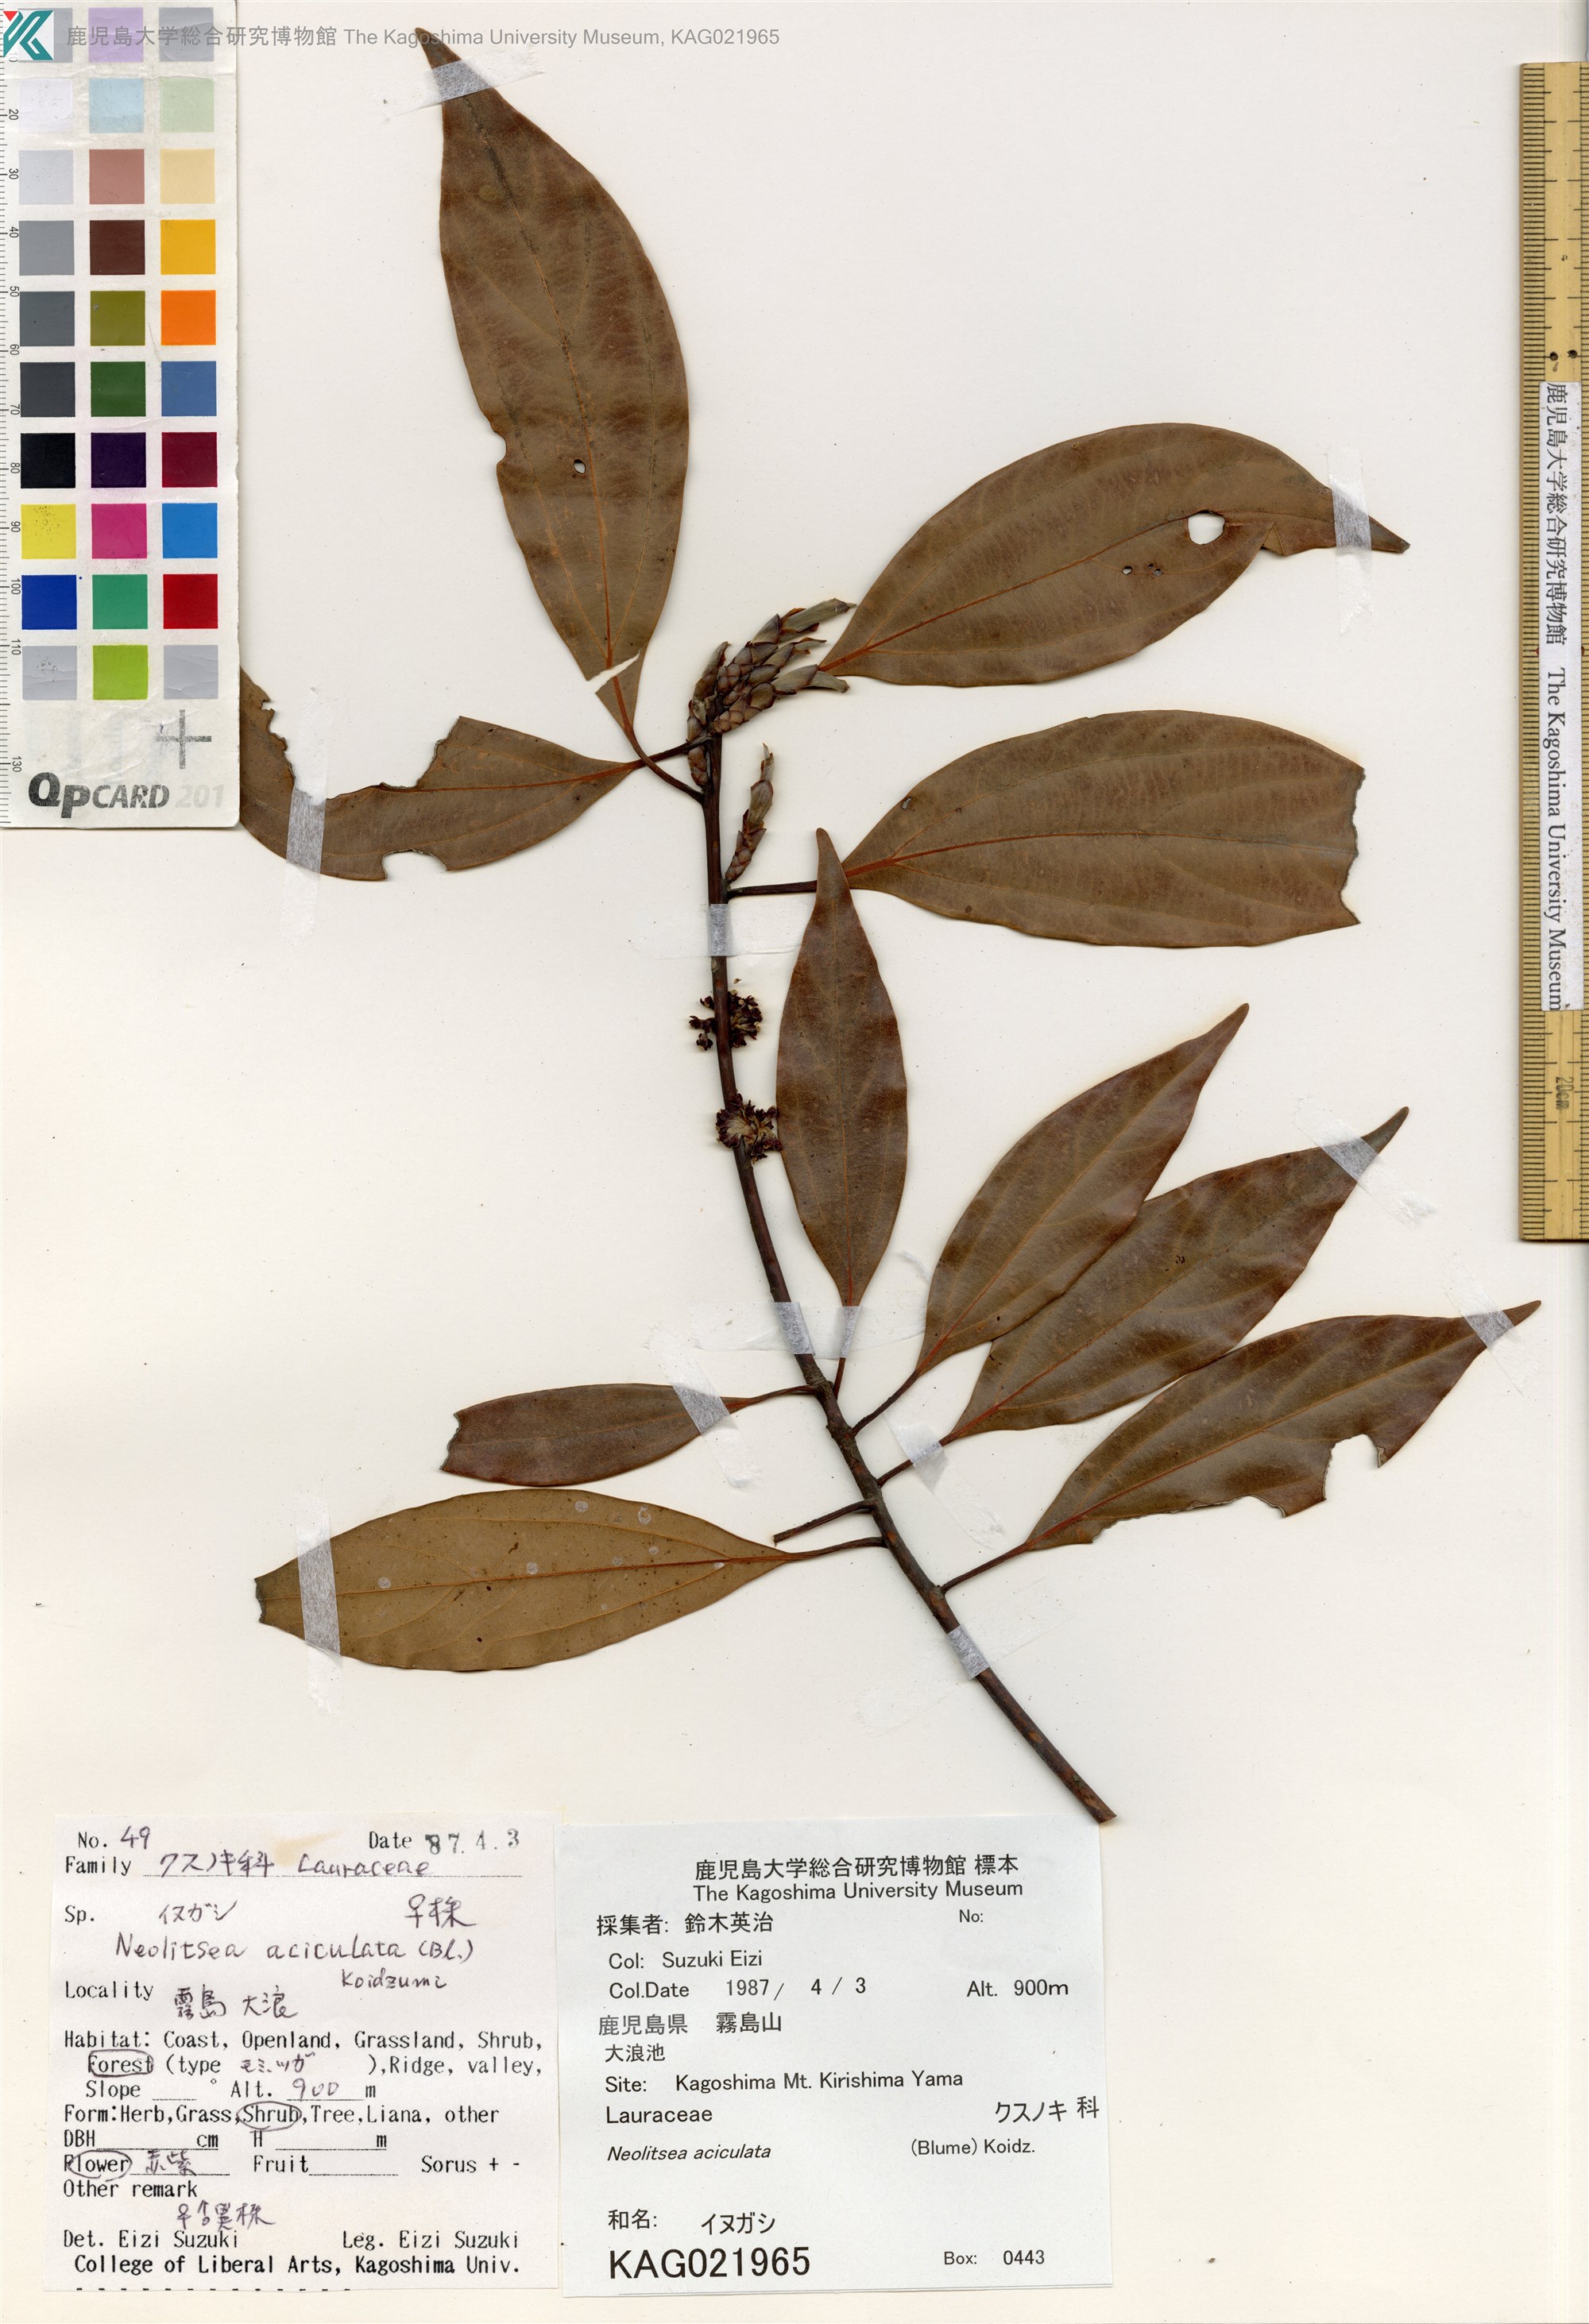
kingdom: Plantae
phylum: Tracheophyta
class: Magnoliopsida
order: Laurales
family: Lauraceae
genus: Neolitsea
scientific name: Neolitsea aciculata
